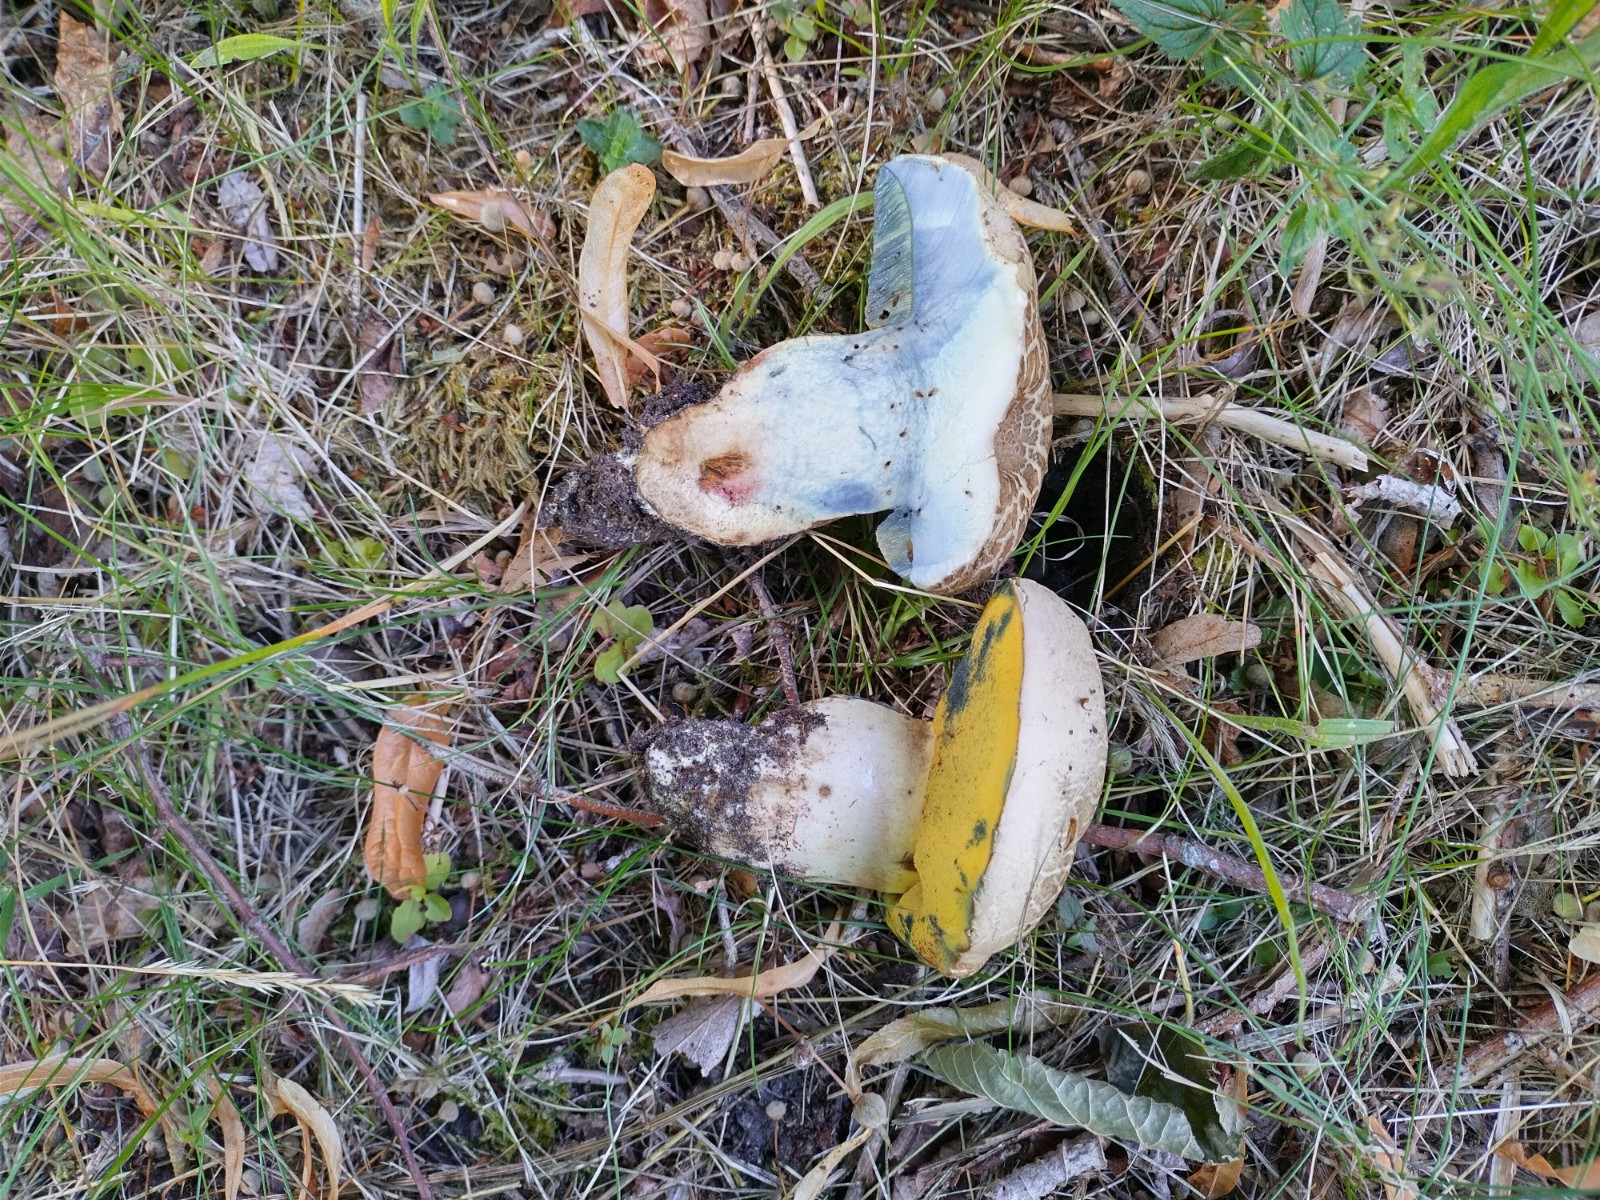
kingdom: Fungi
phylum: Basidiomycota
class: Agaricomycetes
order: Boletales
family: Boletaceae
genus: Caloboletus
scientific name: Caloboletus radicans
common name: rod-rørhat
